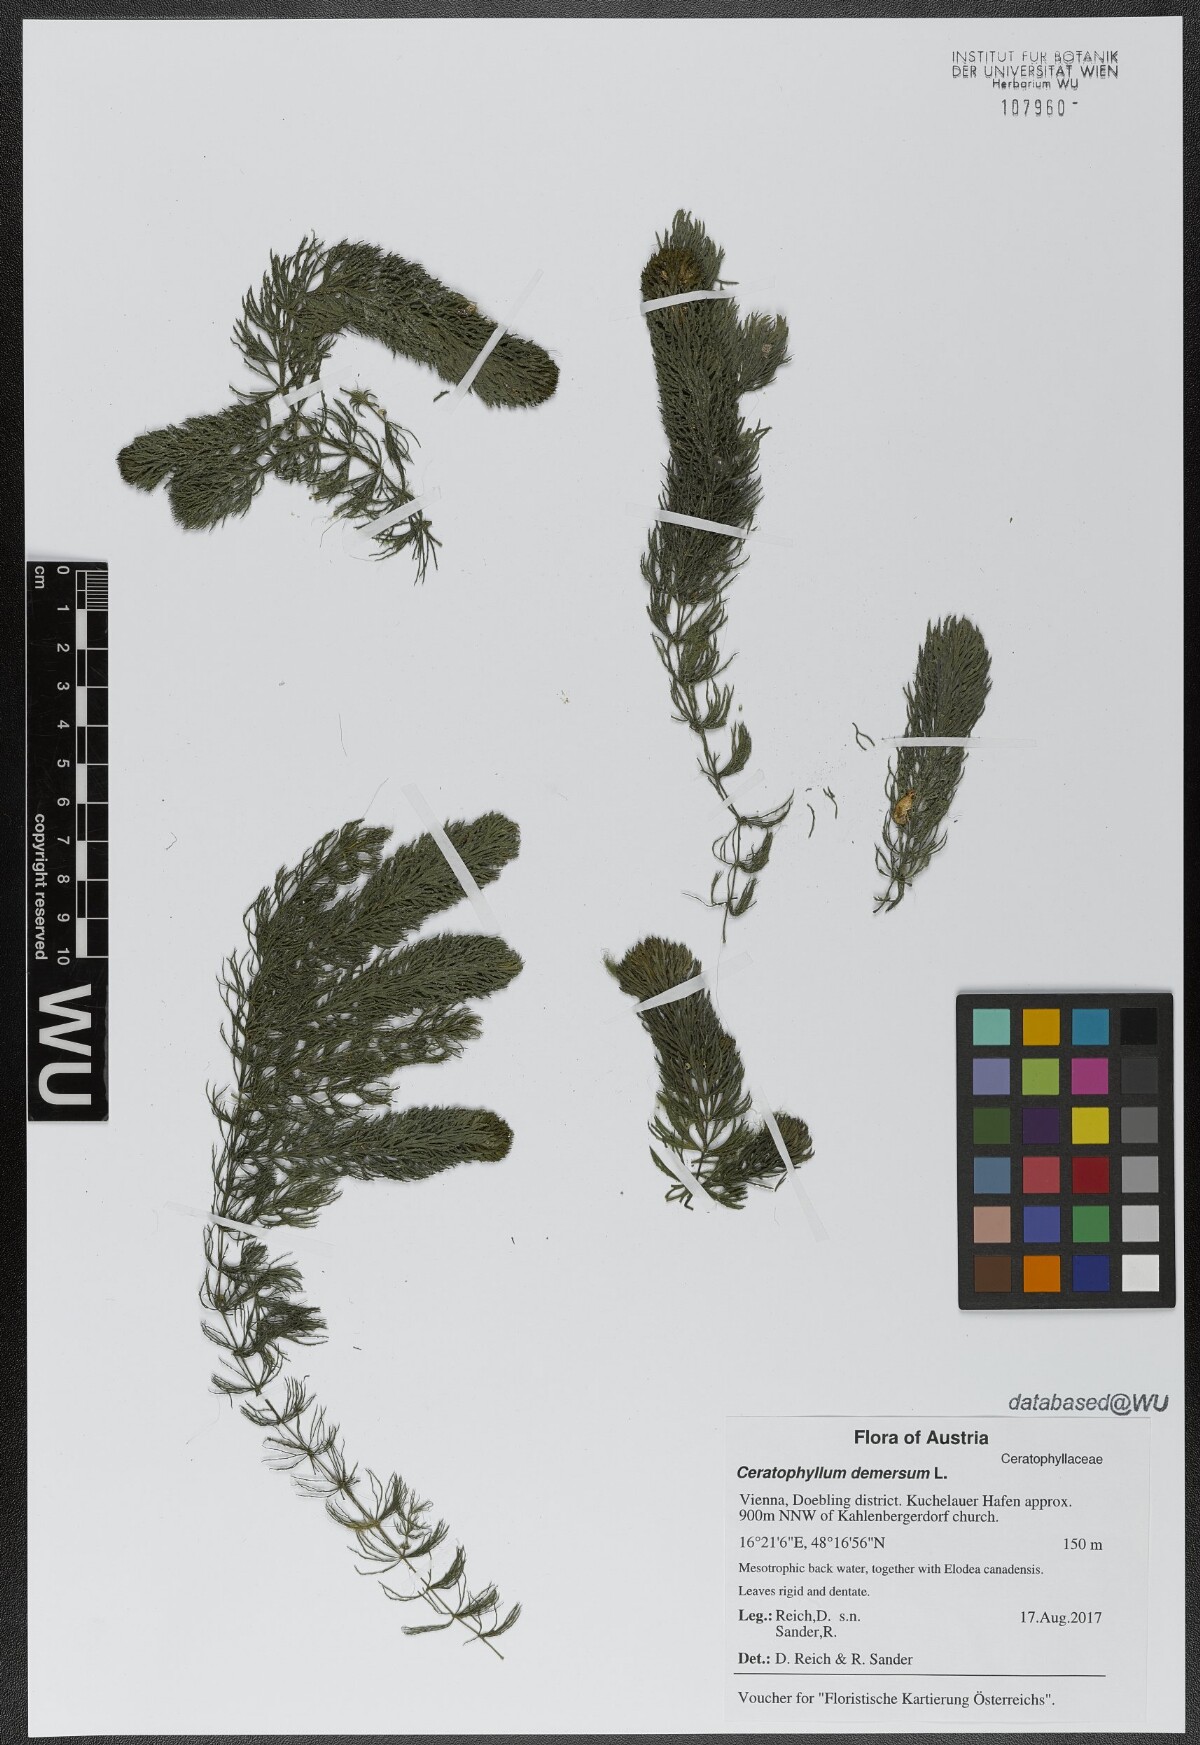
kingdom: Plantae
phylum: Tracheophyta
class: Magnoliopsida
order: Ceratophyllales
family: Ceratophyllaceae
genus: Ceratophyllum
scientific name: Ceratophyllum demersum
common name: Rigid hornwort
